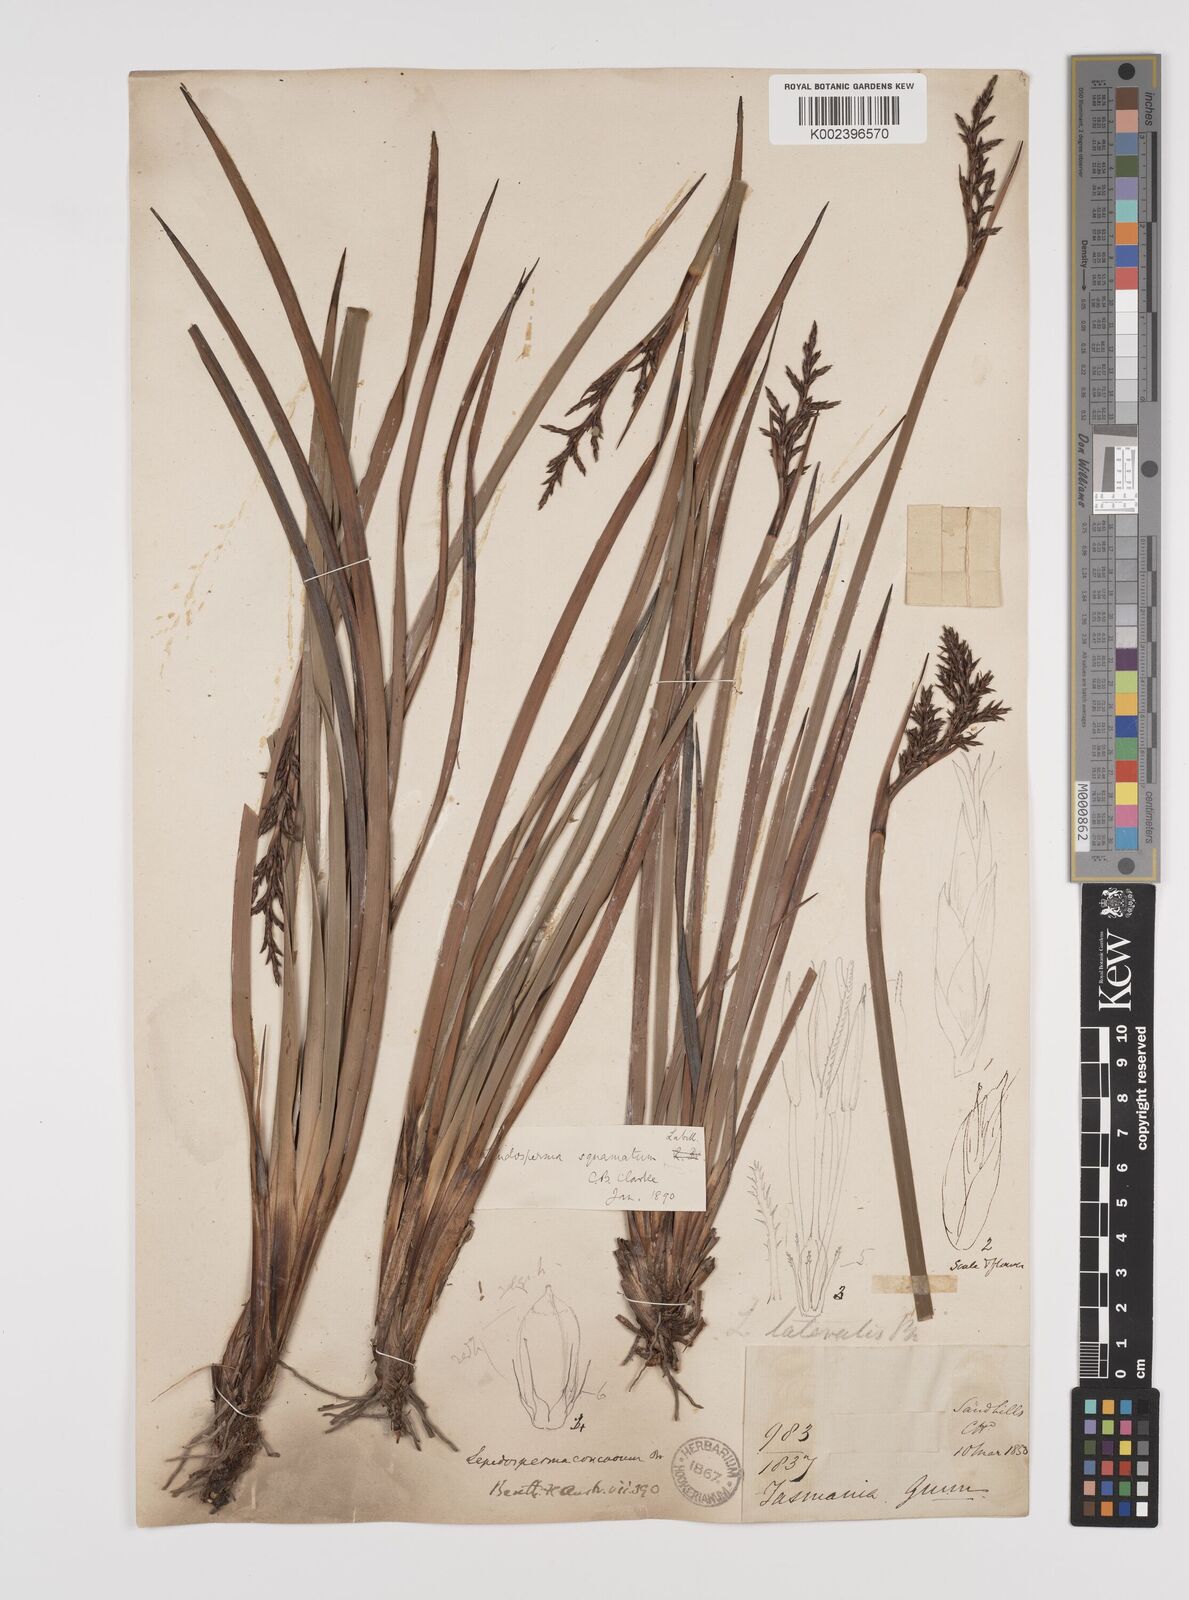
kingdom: Plantae
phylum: Tracheophyta
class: Liliopsida
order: Poales
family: Cyperaceae
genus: Lepidosperma
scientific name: Lepidosperma concavum
